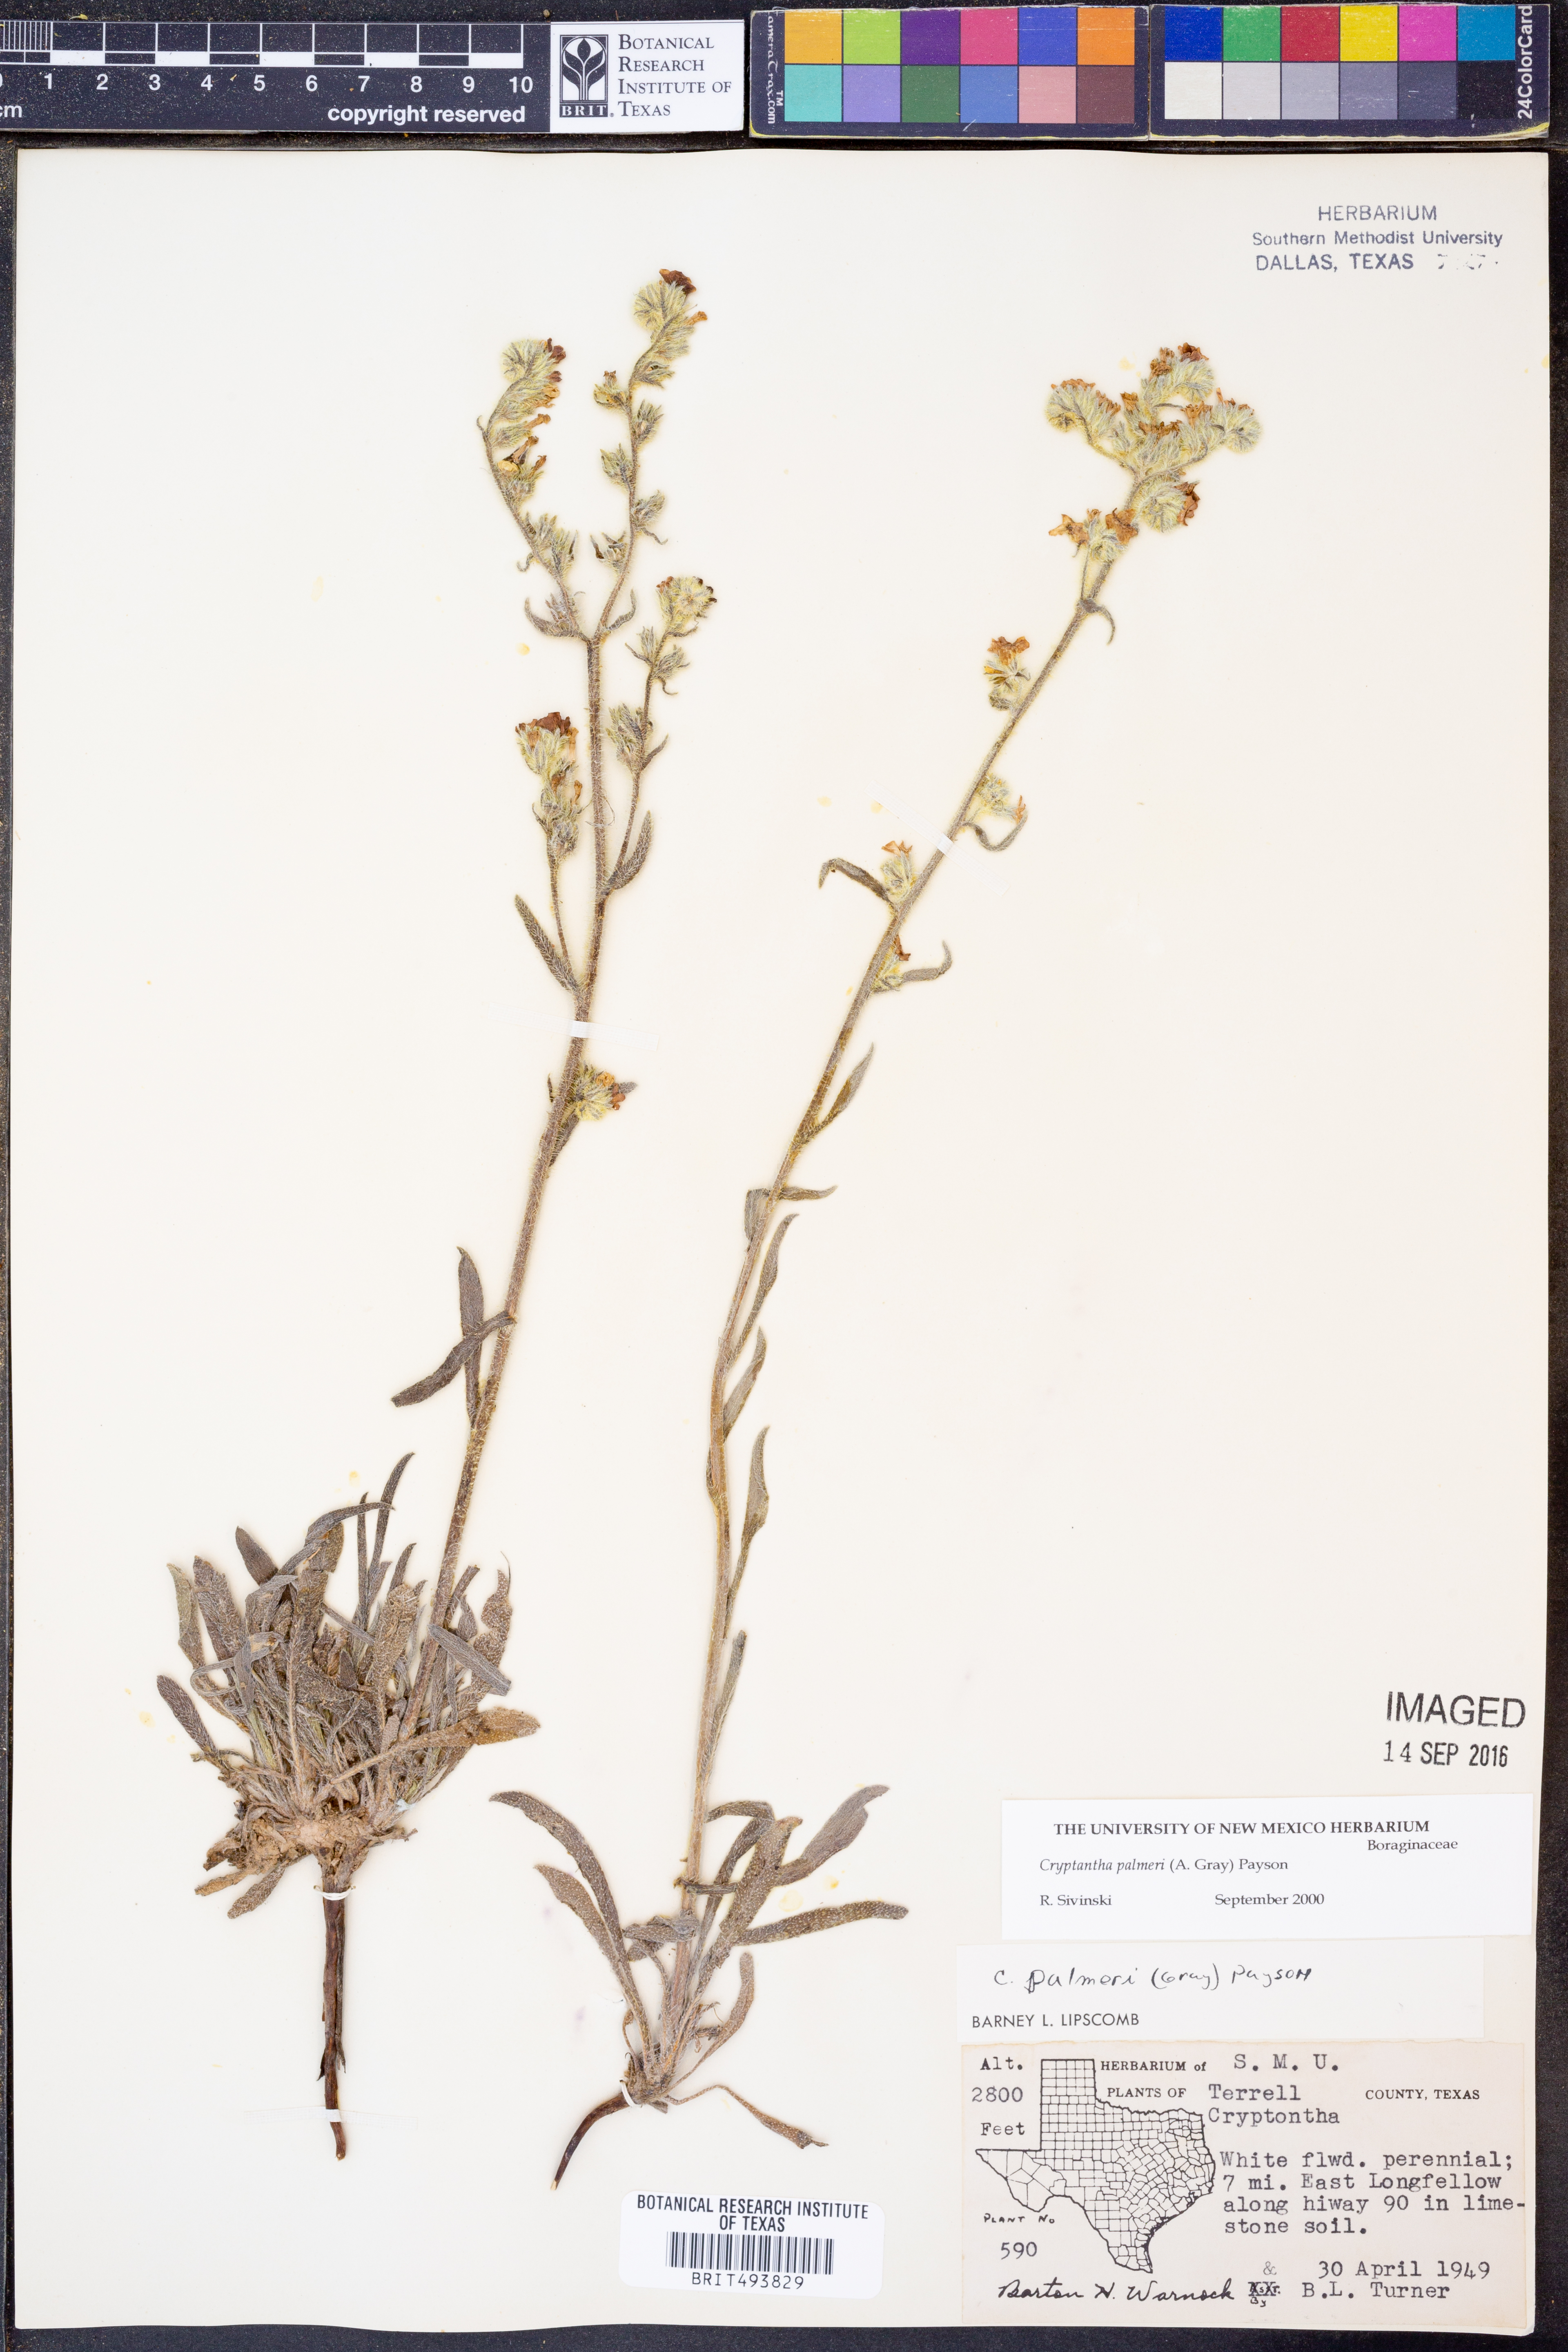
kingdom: Plantae
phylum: Tracheophyta
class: Magnoliopsida
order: Boraginales
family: Boraginaceae
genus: Oreocarya
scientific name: Oreocarya palmeri
